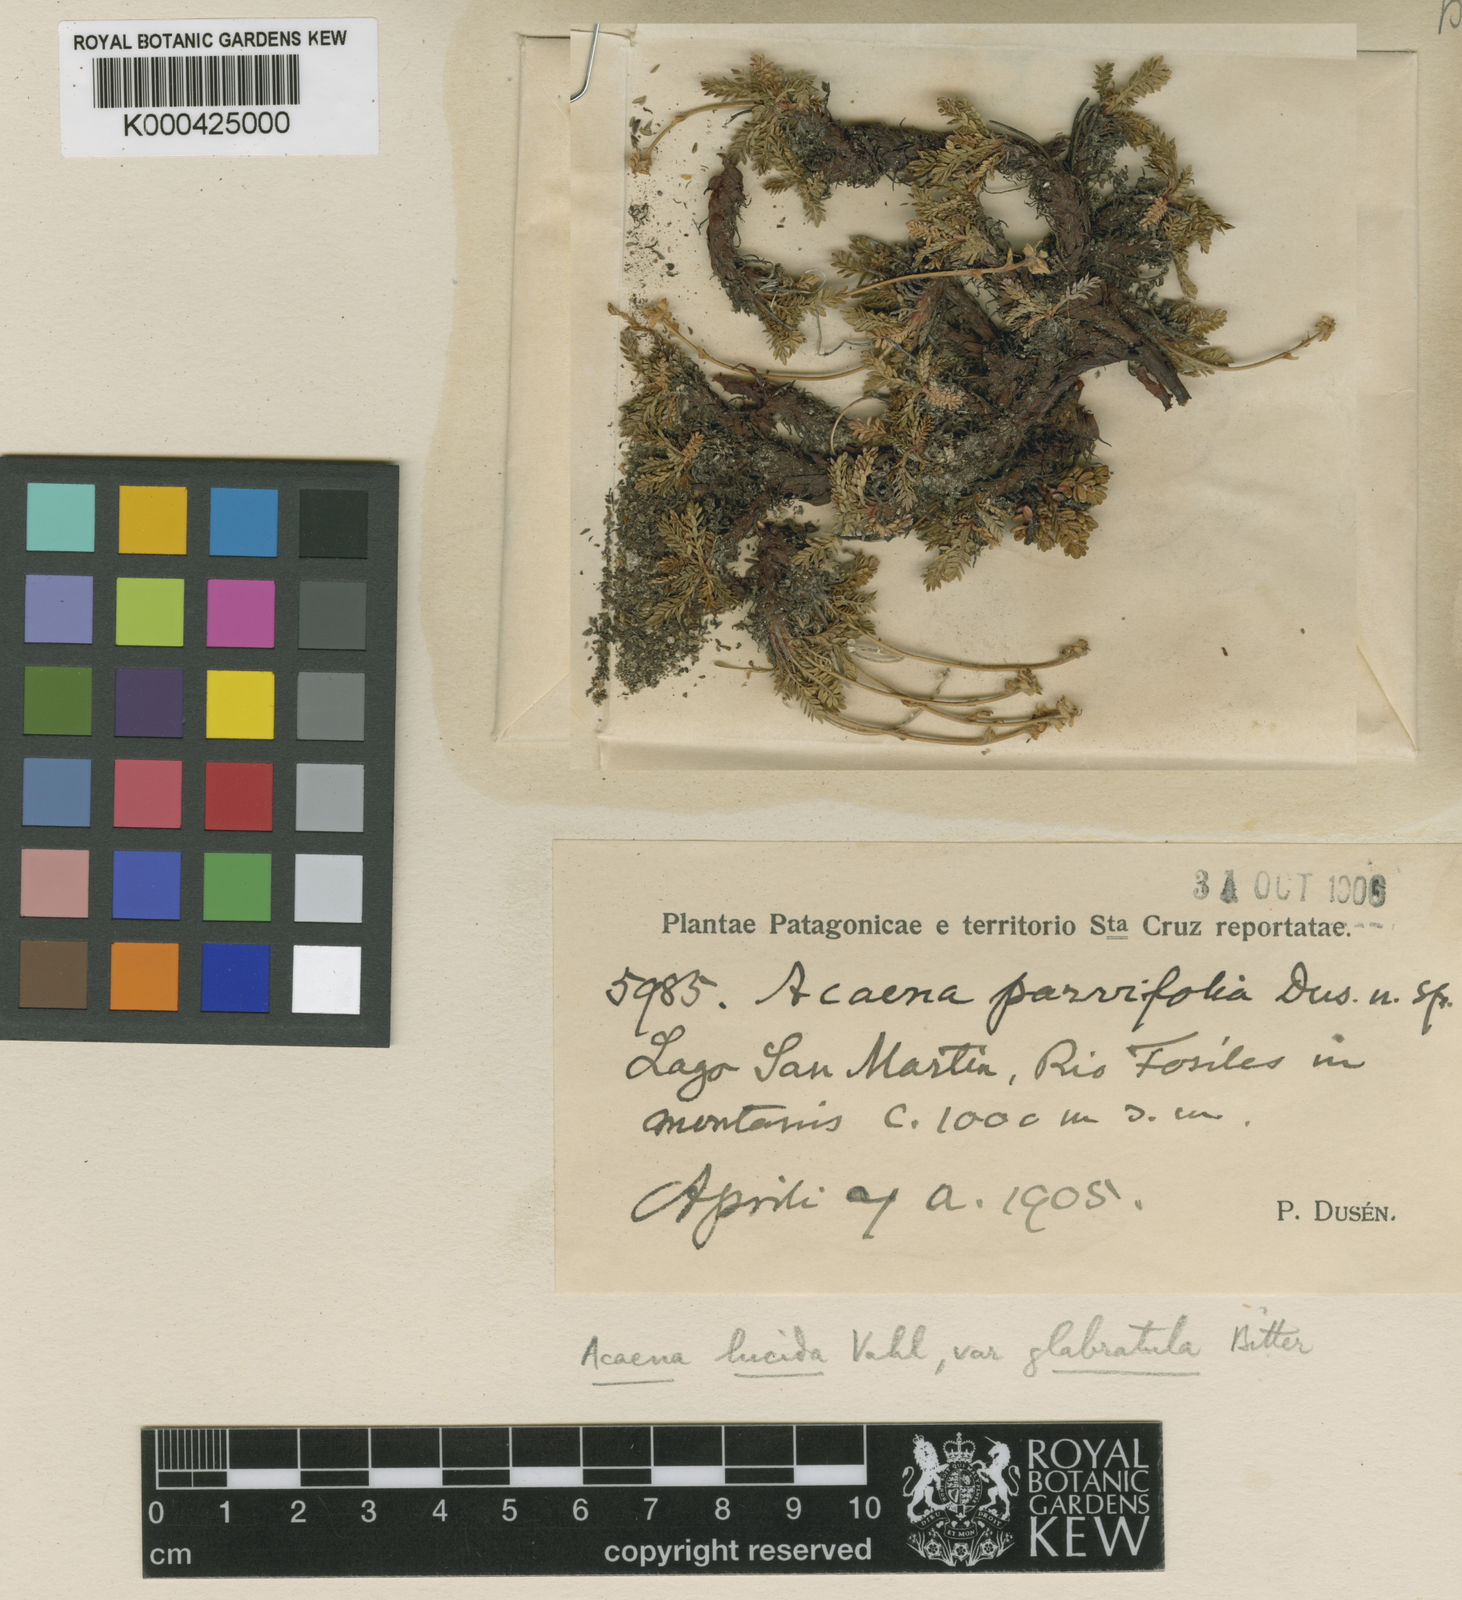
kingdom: Plantae
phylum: Tracheophyta
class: Magnoliopsida
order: Rosales
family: Rosaceae
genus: Acaena
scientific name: Acaena lucida
